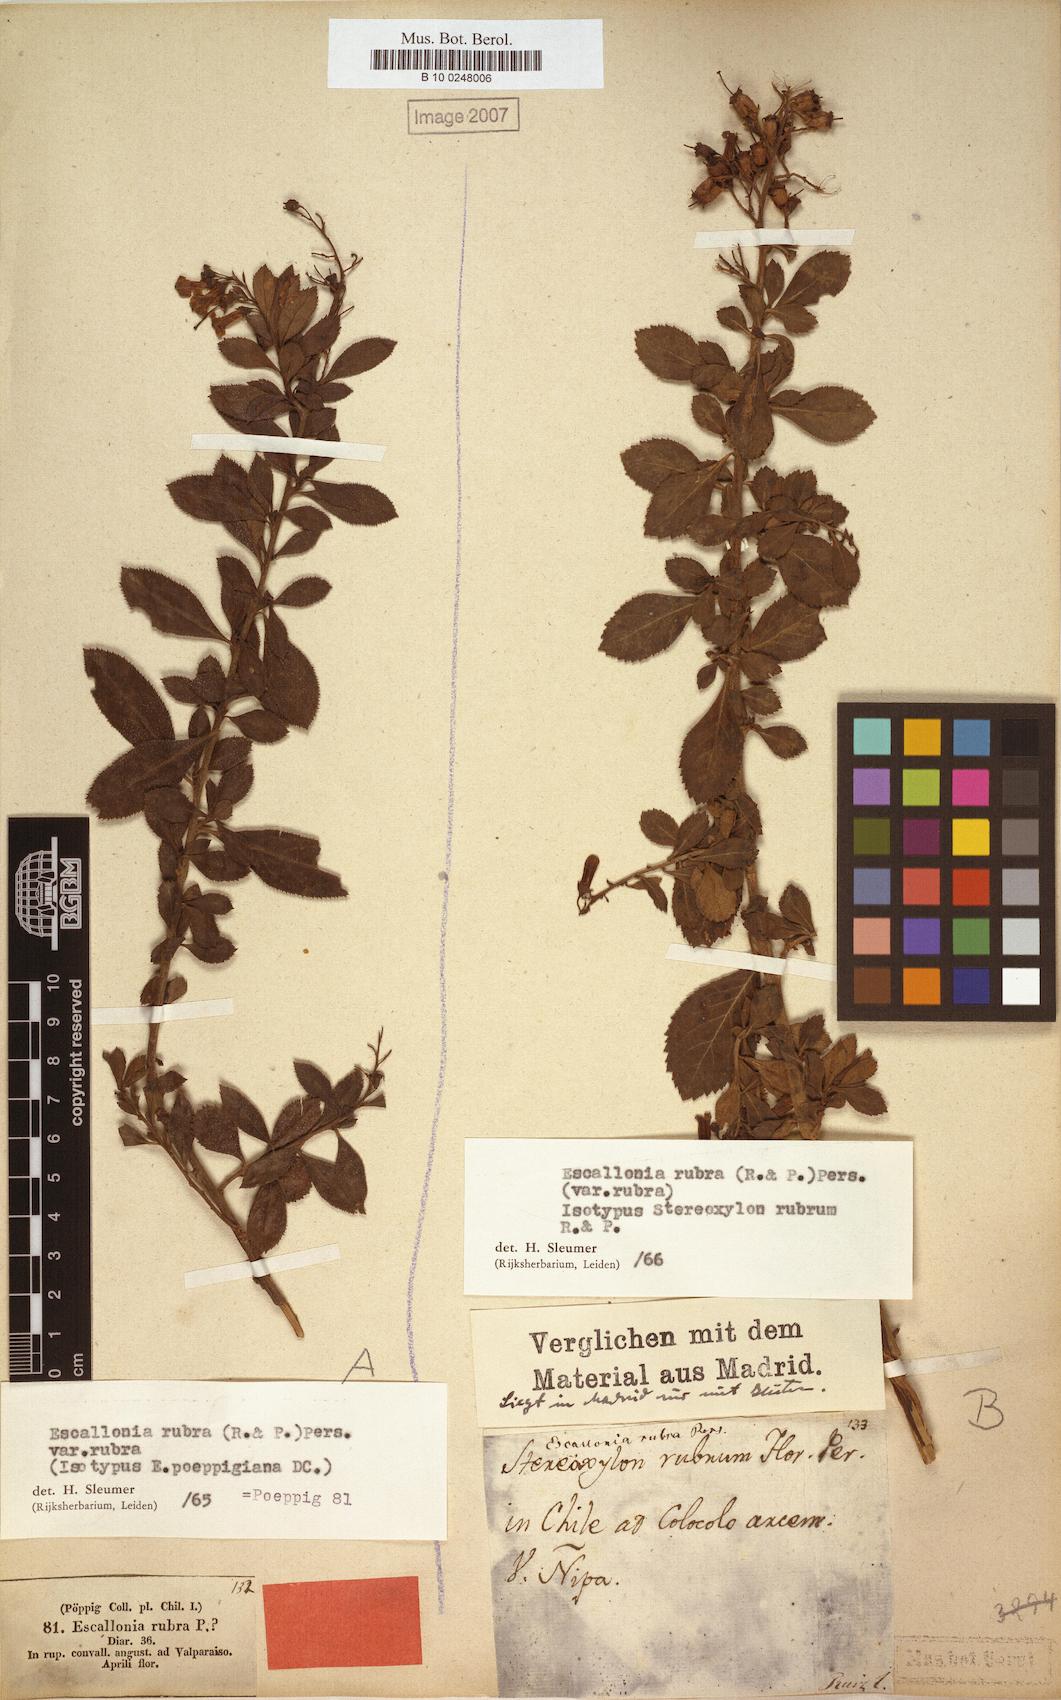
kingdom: Plantae
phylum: Tracheophyta
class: Magnoliopsida
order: Escalloniales
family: Escalloniaceae
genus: Escallonia
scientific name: Escallonia rubra
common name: Redclaws
